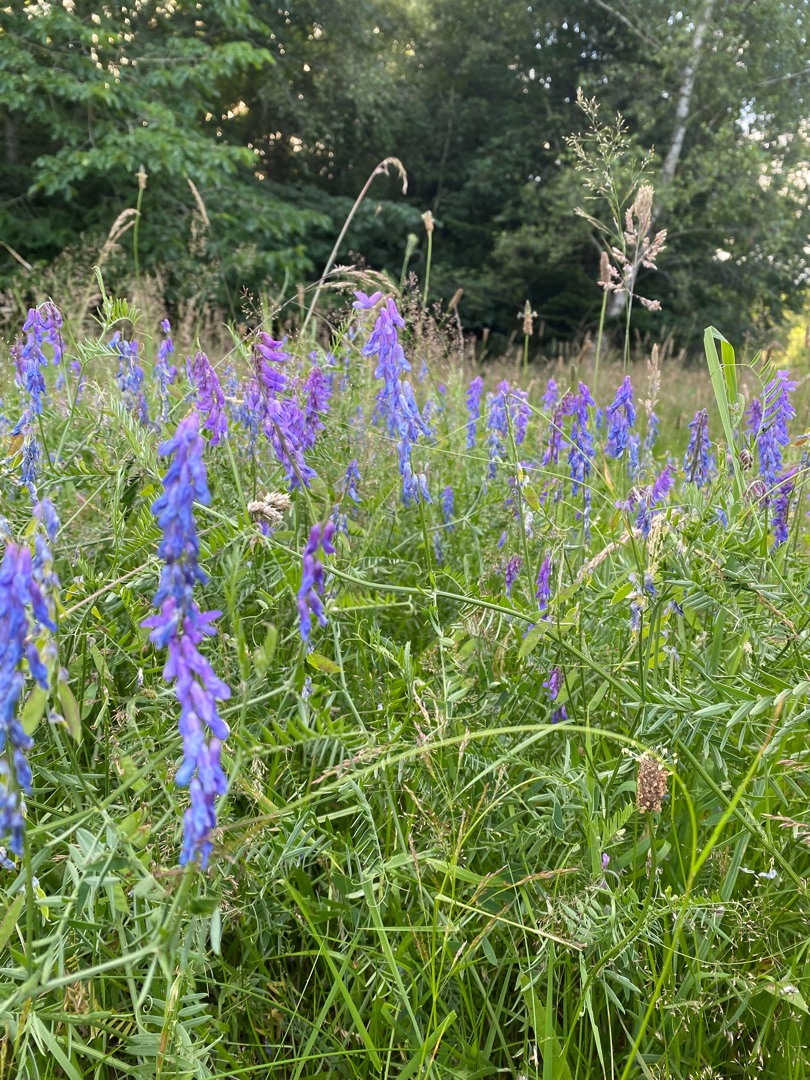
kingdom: Plantae
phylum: Tracheophyta
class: Magnoliopsida
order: Fabales
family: Fabaceae
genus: Vicia
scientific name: Vicia cracca
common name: Muse-vikke
